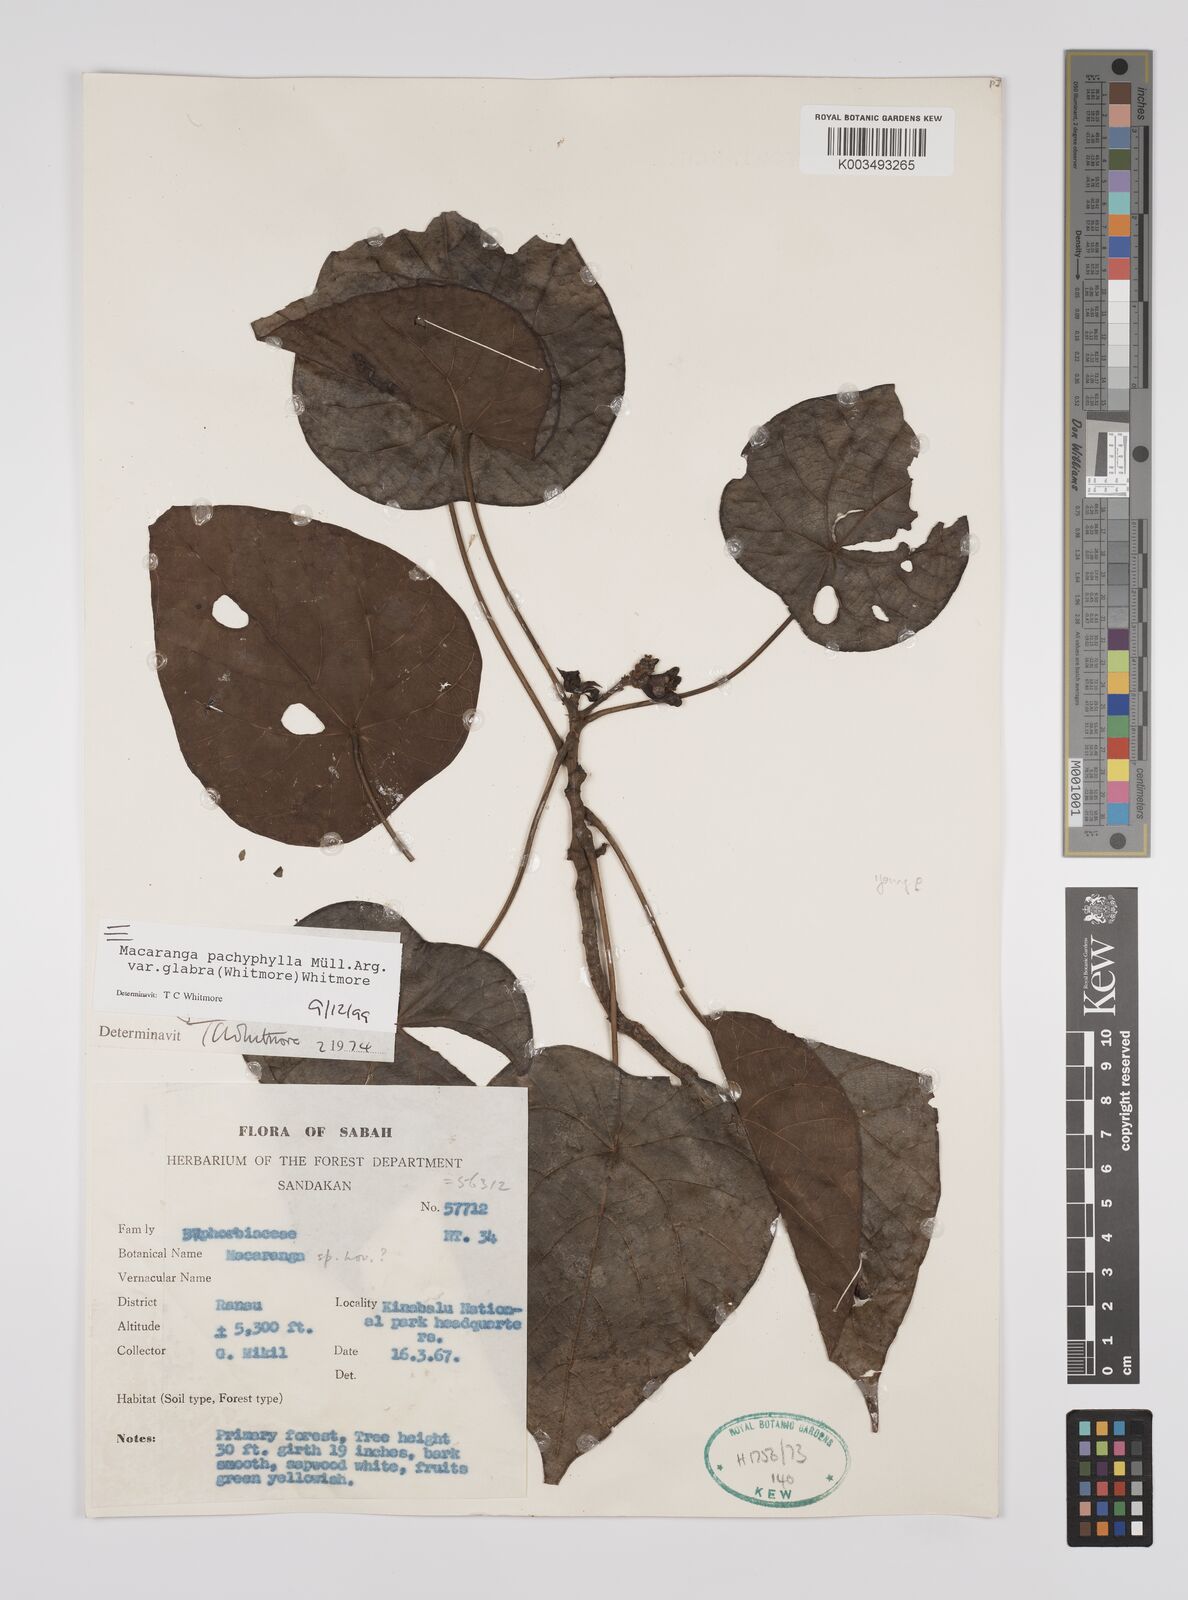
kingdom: Plantae
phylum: Tracheophyta
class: Magnoliopsida
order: Malpighiales
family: Euphorbiaceae
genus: Macaranga
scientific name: Macaranga pachyphylla
